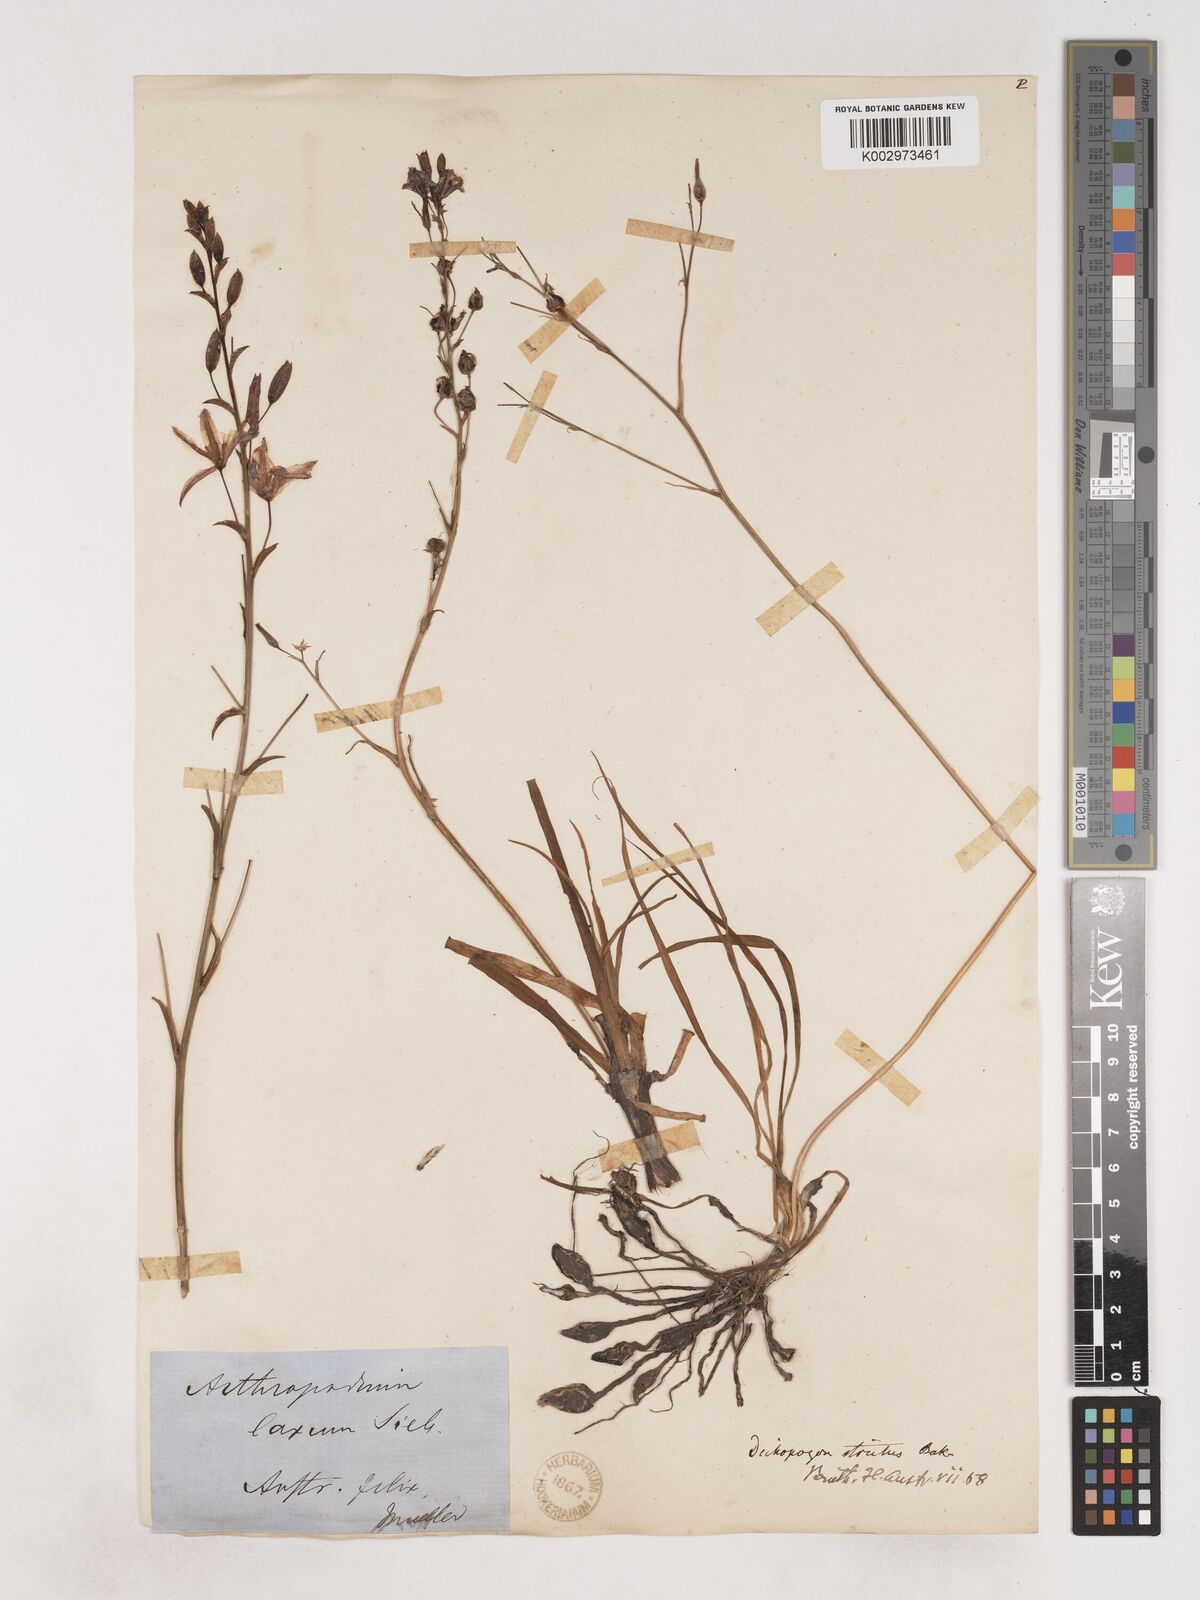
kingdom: Plantae
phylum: Tracheophyta
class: Liliopsida
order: Asparagales
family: Asparagaceae
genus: Arthropodium
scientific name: Arthropodium strictum
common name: Chocolate-lily
